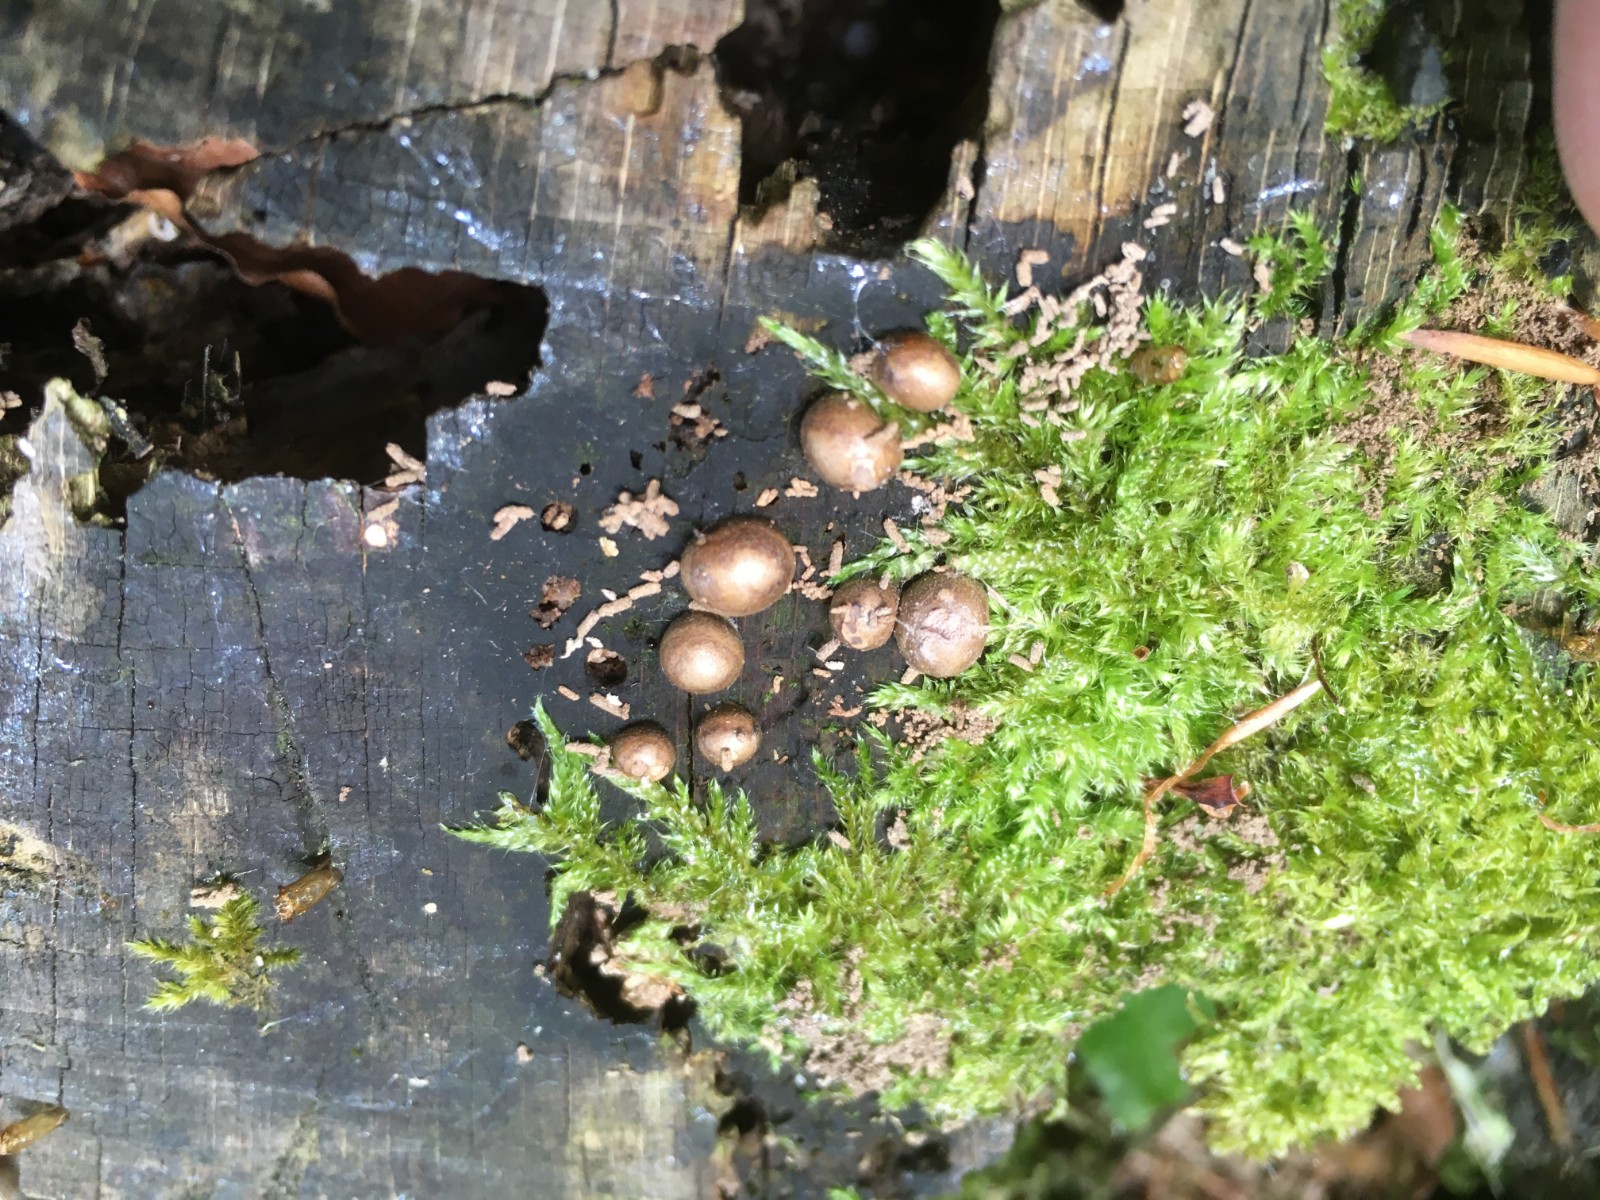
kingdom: Protozoa
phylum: Mycetozoa
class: Myxomycetes
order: Cribrariales
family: Tubiferaceae
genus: Lycogala
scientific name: Lycogala epidendrum
